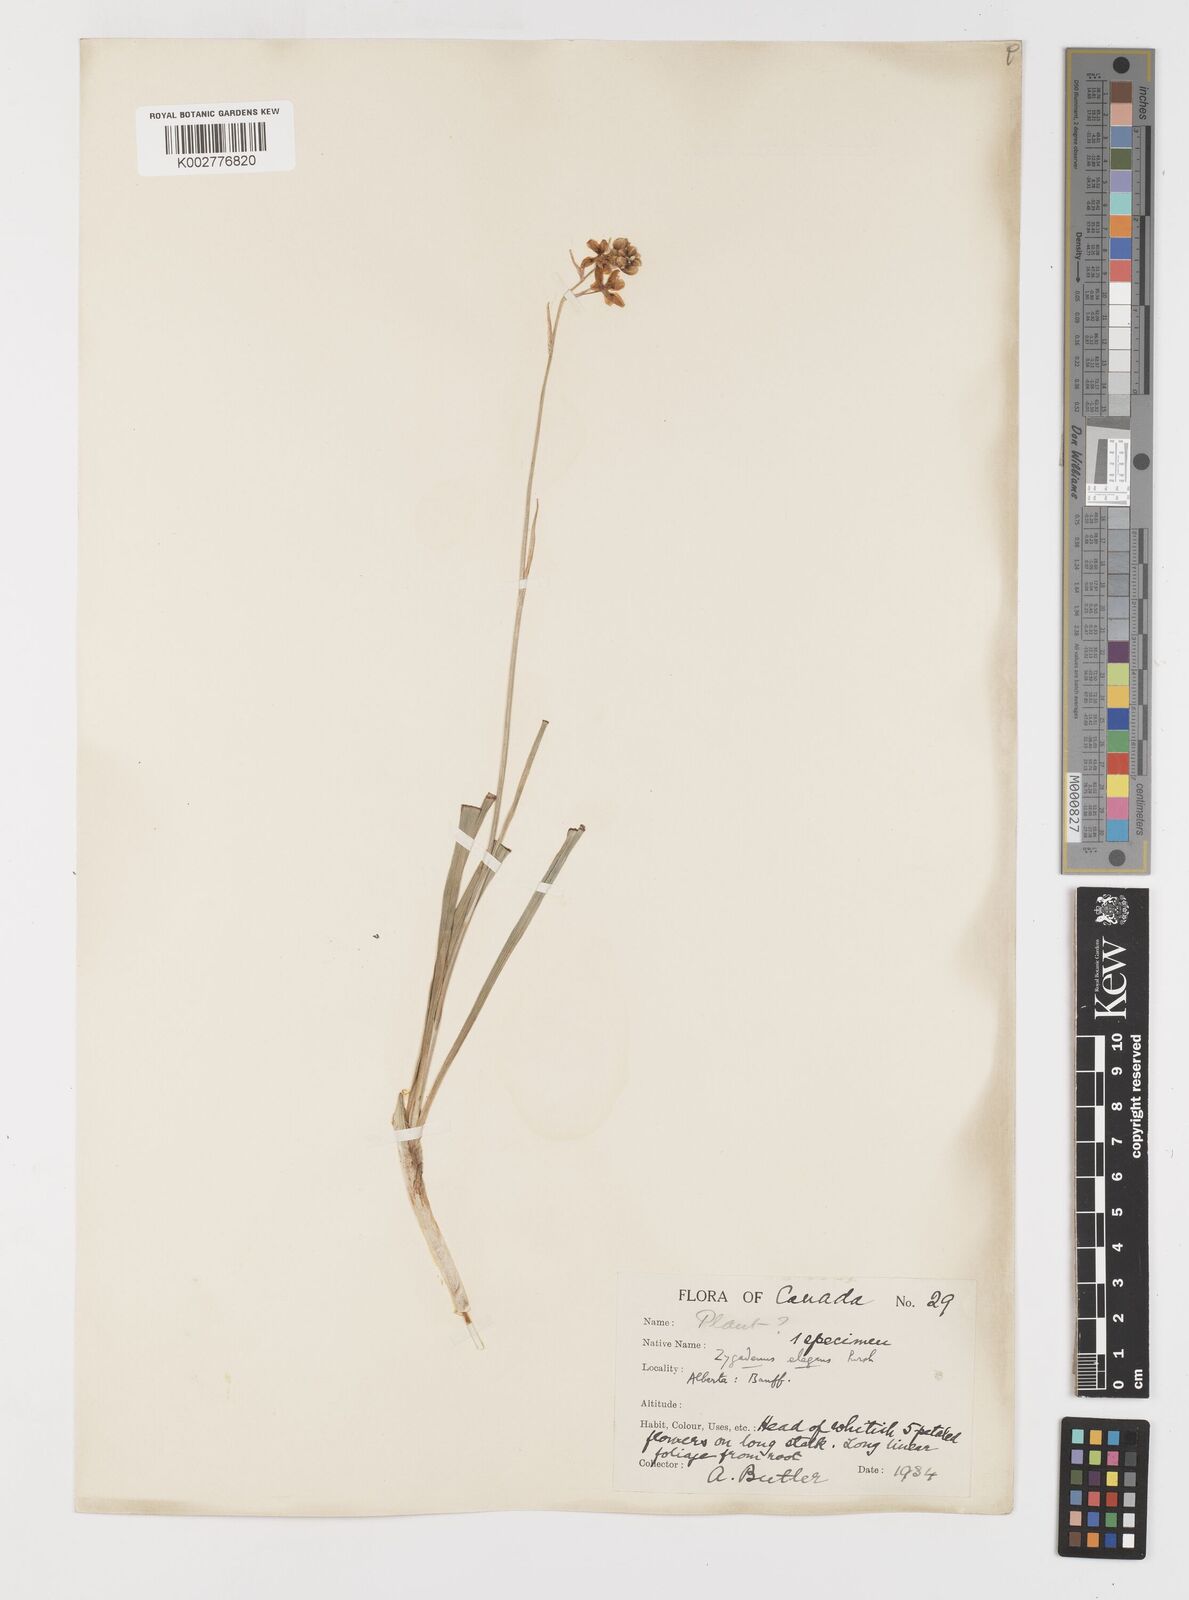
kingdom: Plantae
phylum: Tracheophyta
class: Liliopsida
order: Liliales
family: Melanthiaceae
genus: Anticlea
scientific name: Anticlea elegans
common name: Mountain death camas
